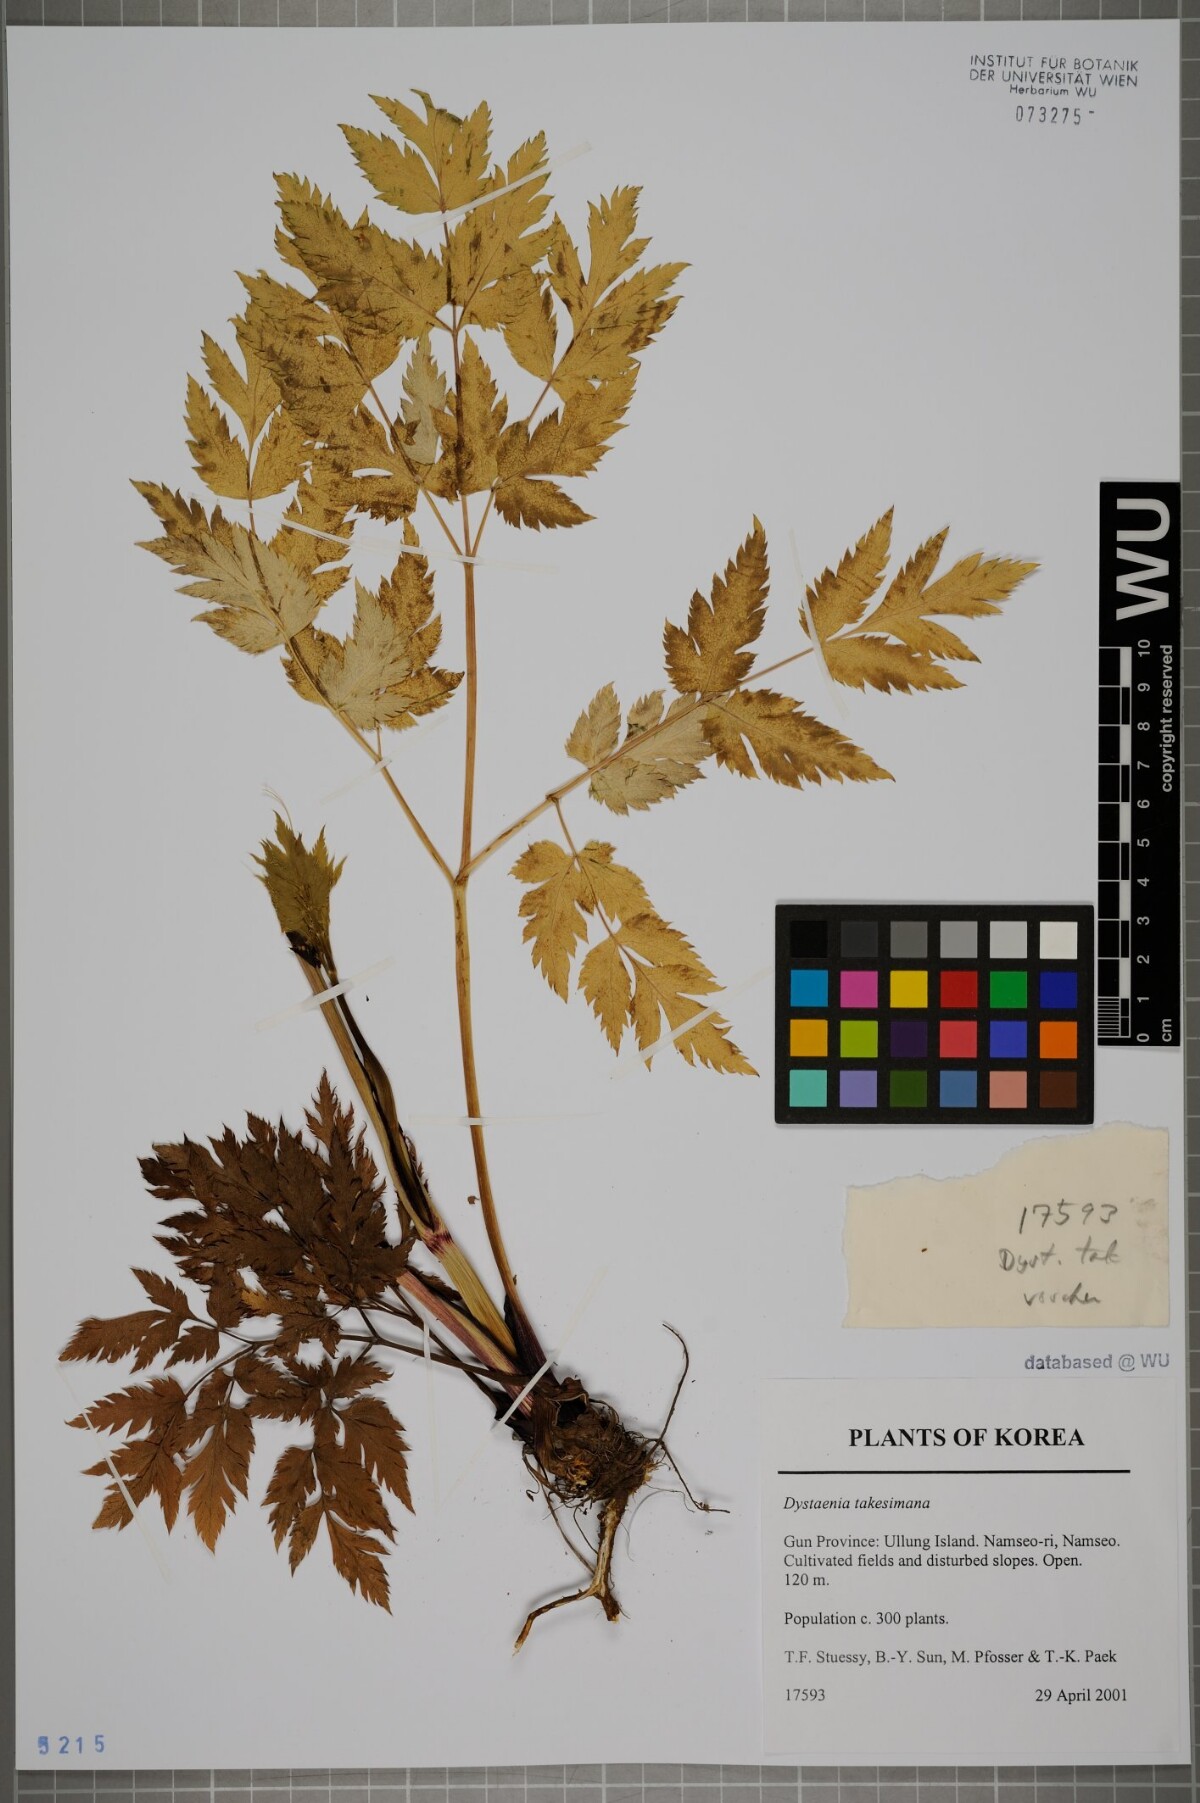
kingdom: Plantae
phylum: Tracheophyta
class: Magnoliopsida
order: Apiales
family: Apiaceae
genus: Dystaenia
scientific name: Dystaenia takeshimana
